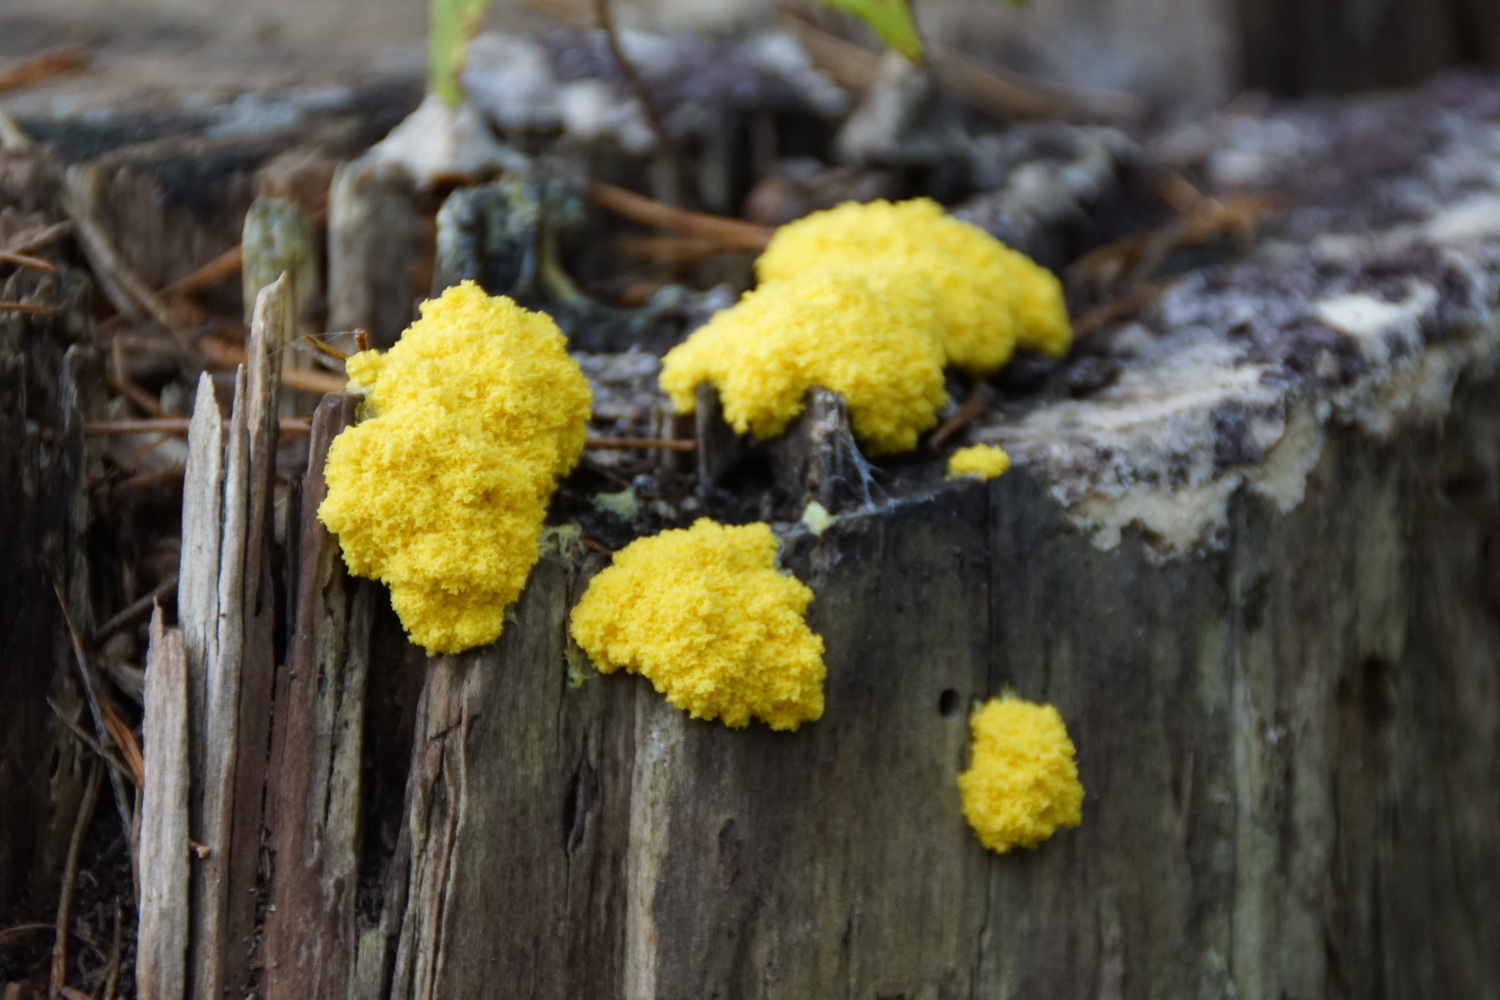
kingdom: Protozoa
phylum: Mycetozoa
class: Myxomycetes
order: Physarales
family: Physaraceae
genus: Fuligo
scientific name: Fuligo septica
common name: gul troldsmør
